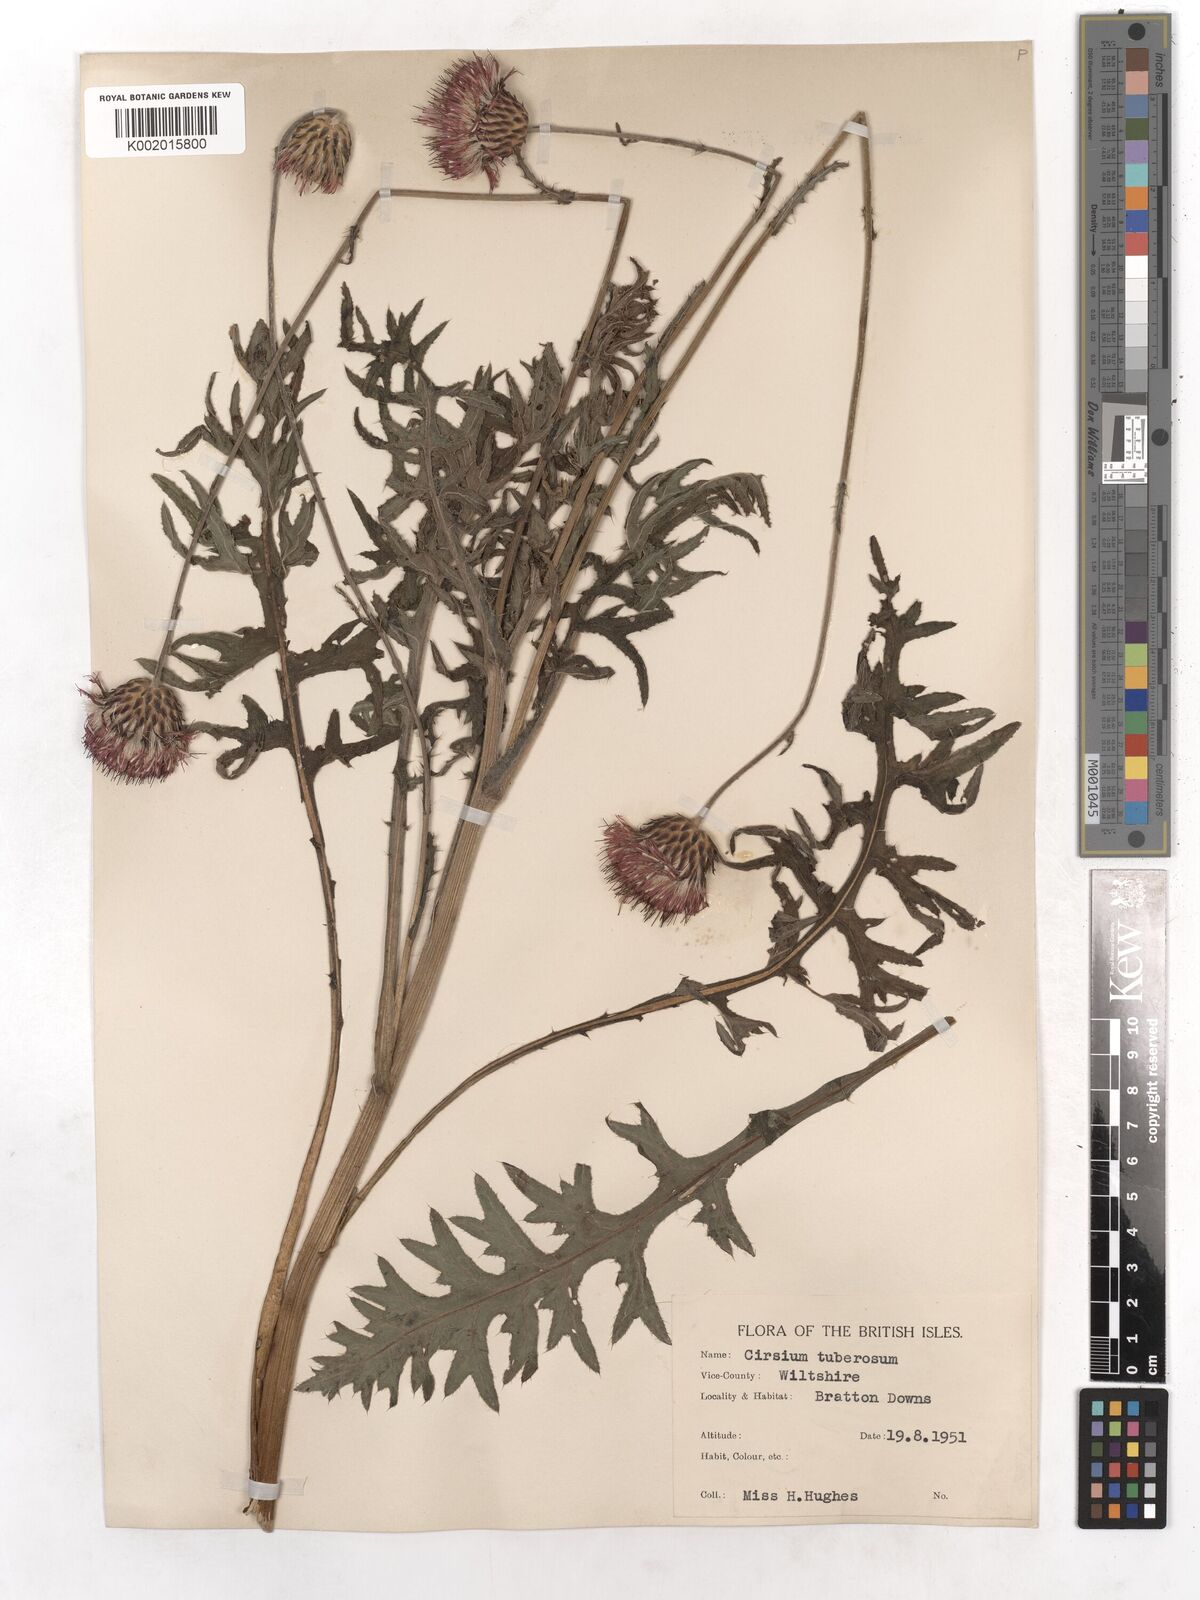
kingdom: Plantae
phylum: Tracheophyta
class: Magnoliopsida
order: Asterales
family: Asteraceae
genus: Cirsium
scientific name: Cirsium tuberosum
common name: Tuberous thistle
